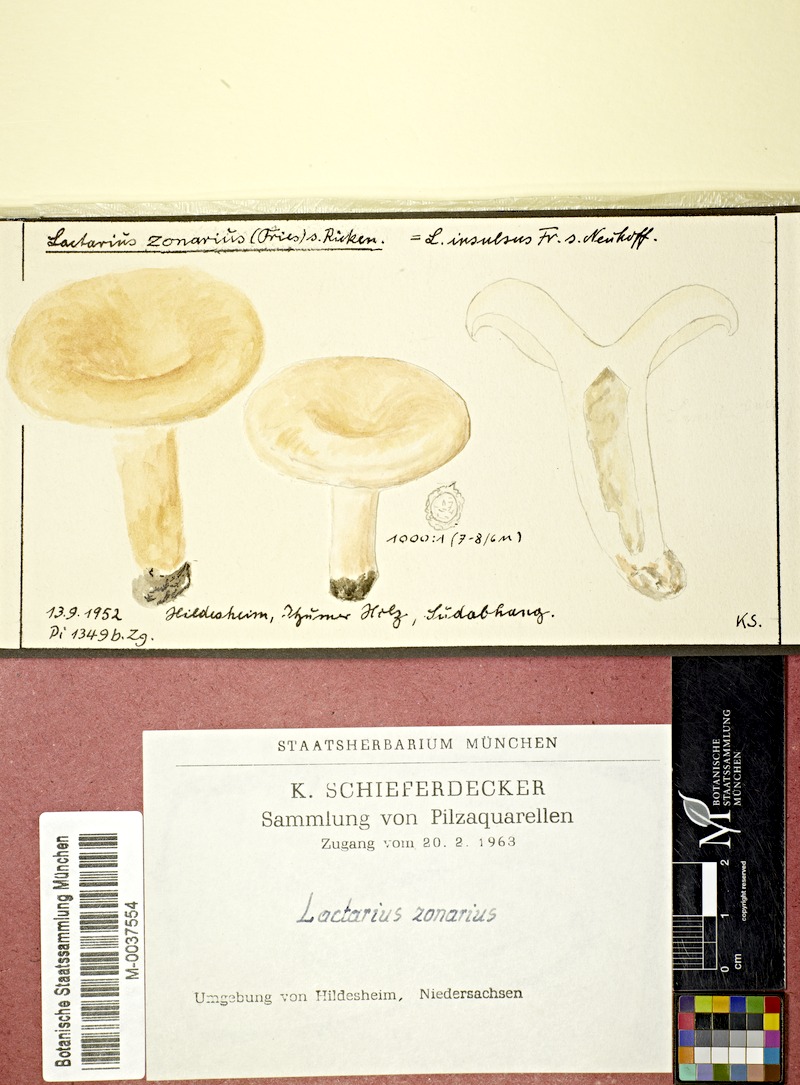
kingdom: Fungi
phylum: Basidiomycota
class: Agaricomycetes
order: Russulales
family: Russulaceae
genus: Lactarius
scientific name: Lactarius zonarius
